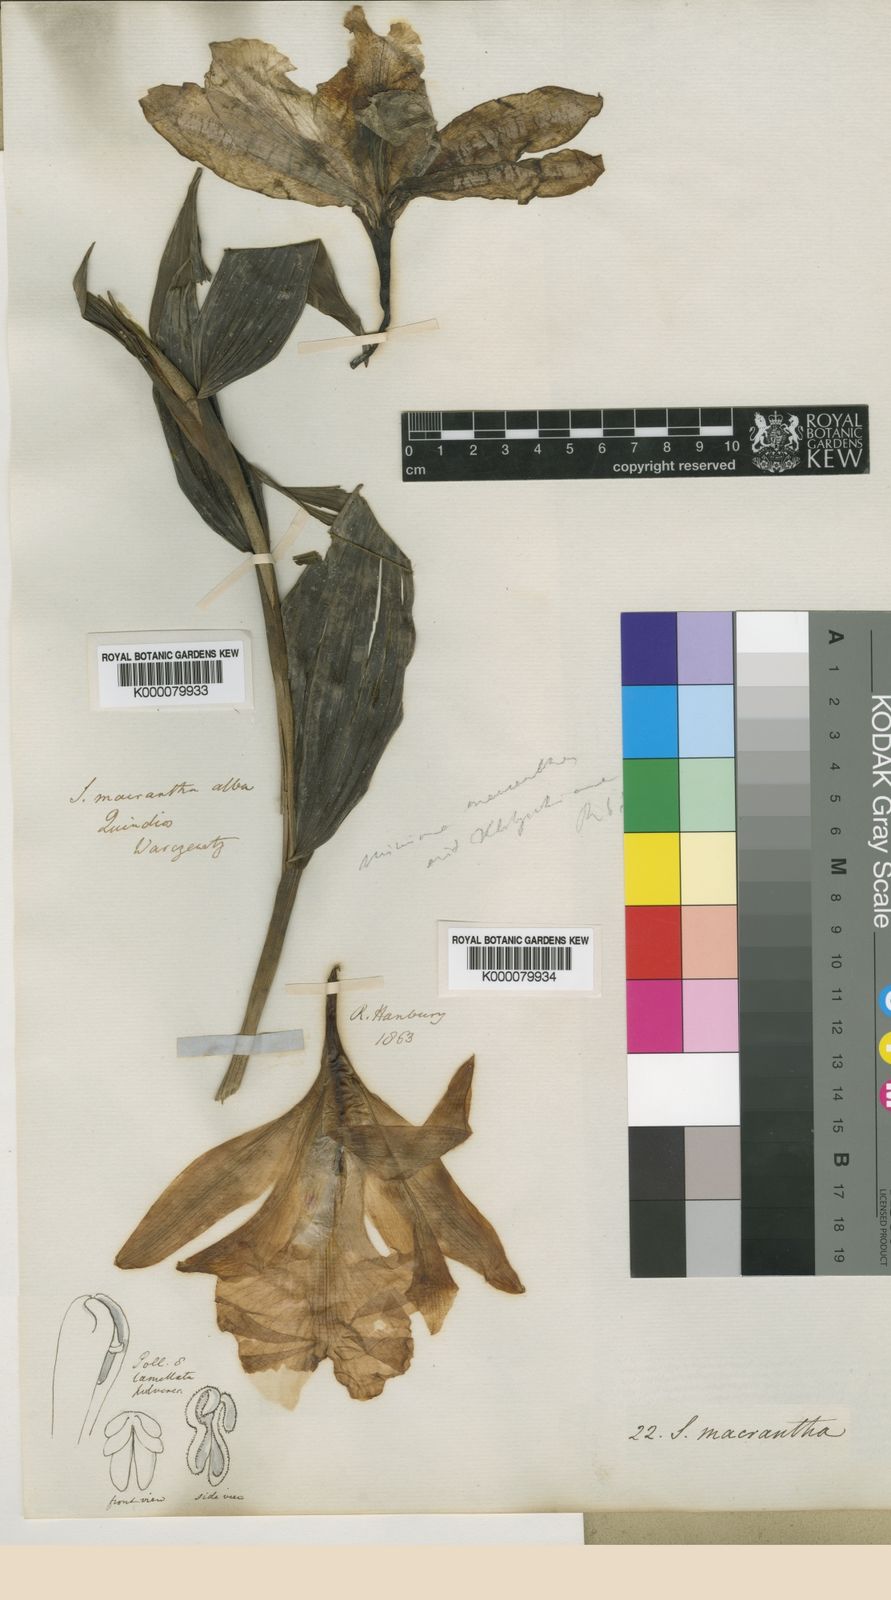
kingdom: Plantae
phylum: Tracheophyta
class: Liliopsida
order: Asparagales
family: Orchidaceae
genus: Sobralia
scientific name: Sobralia macrantha
